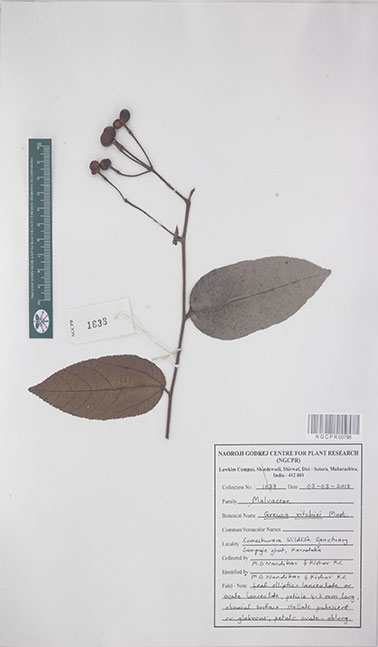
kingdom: Plantae
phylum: Tracheophyta
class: Magnoliopsida
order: Malvales
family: Malvaceae
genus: Grewia
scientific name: Grewia ritchiei
